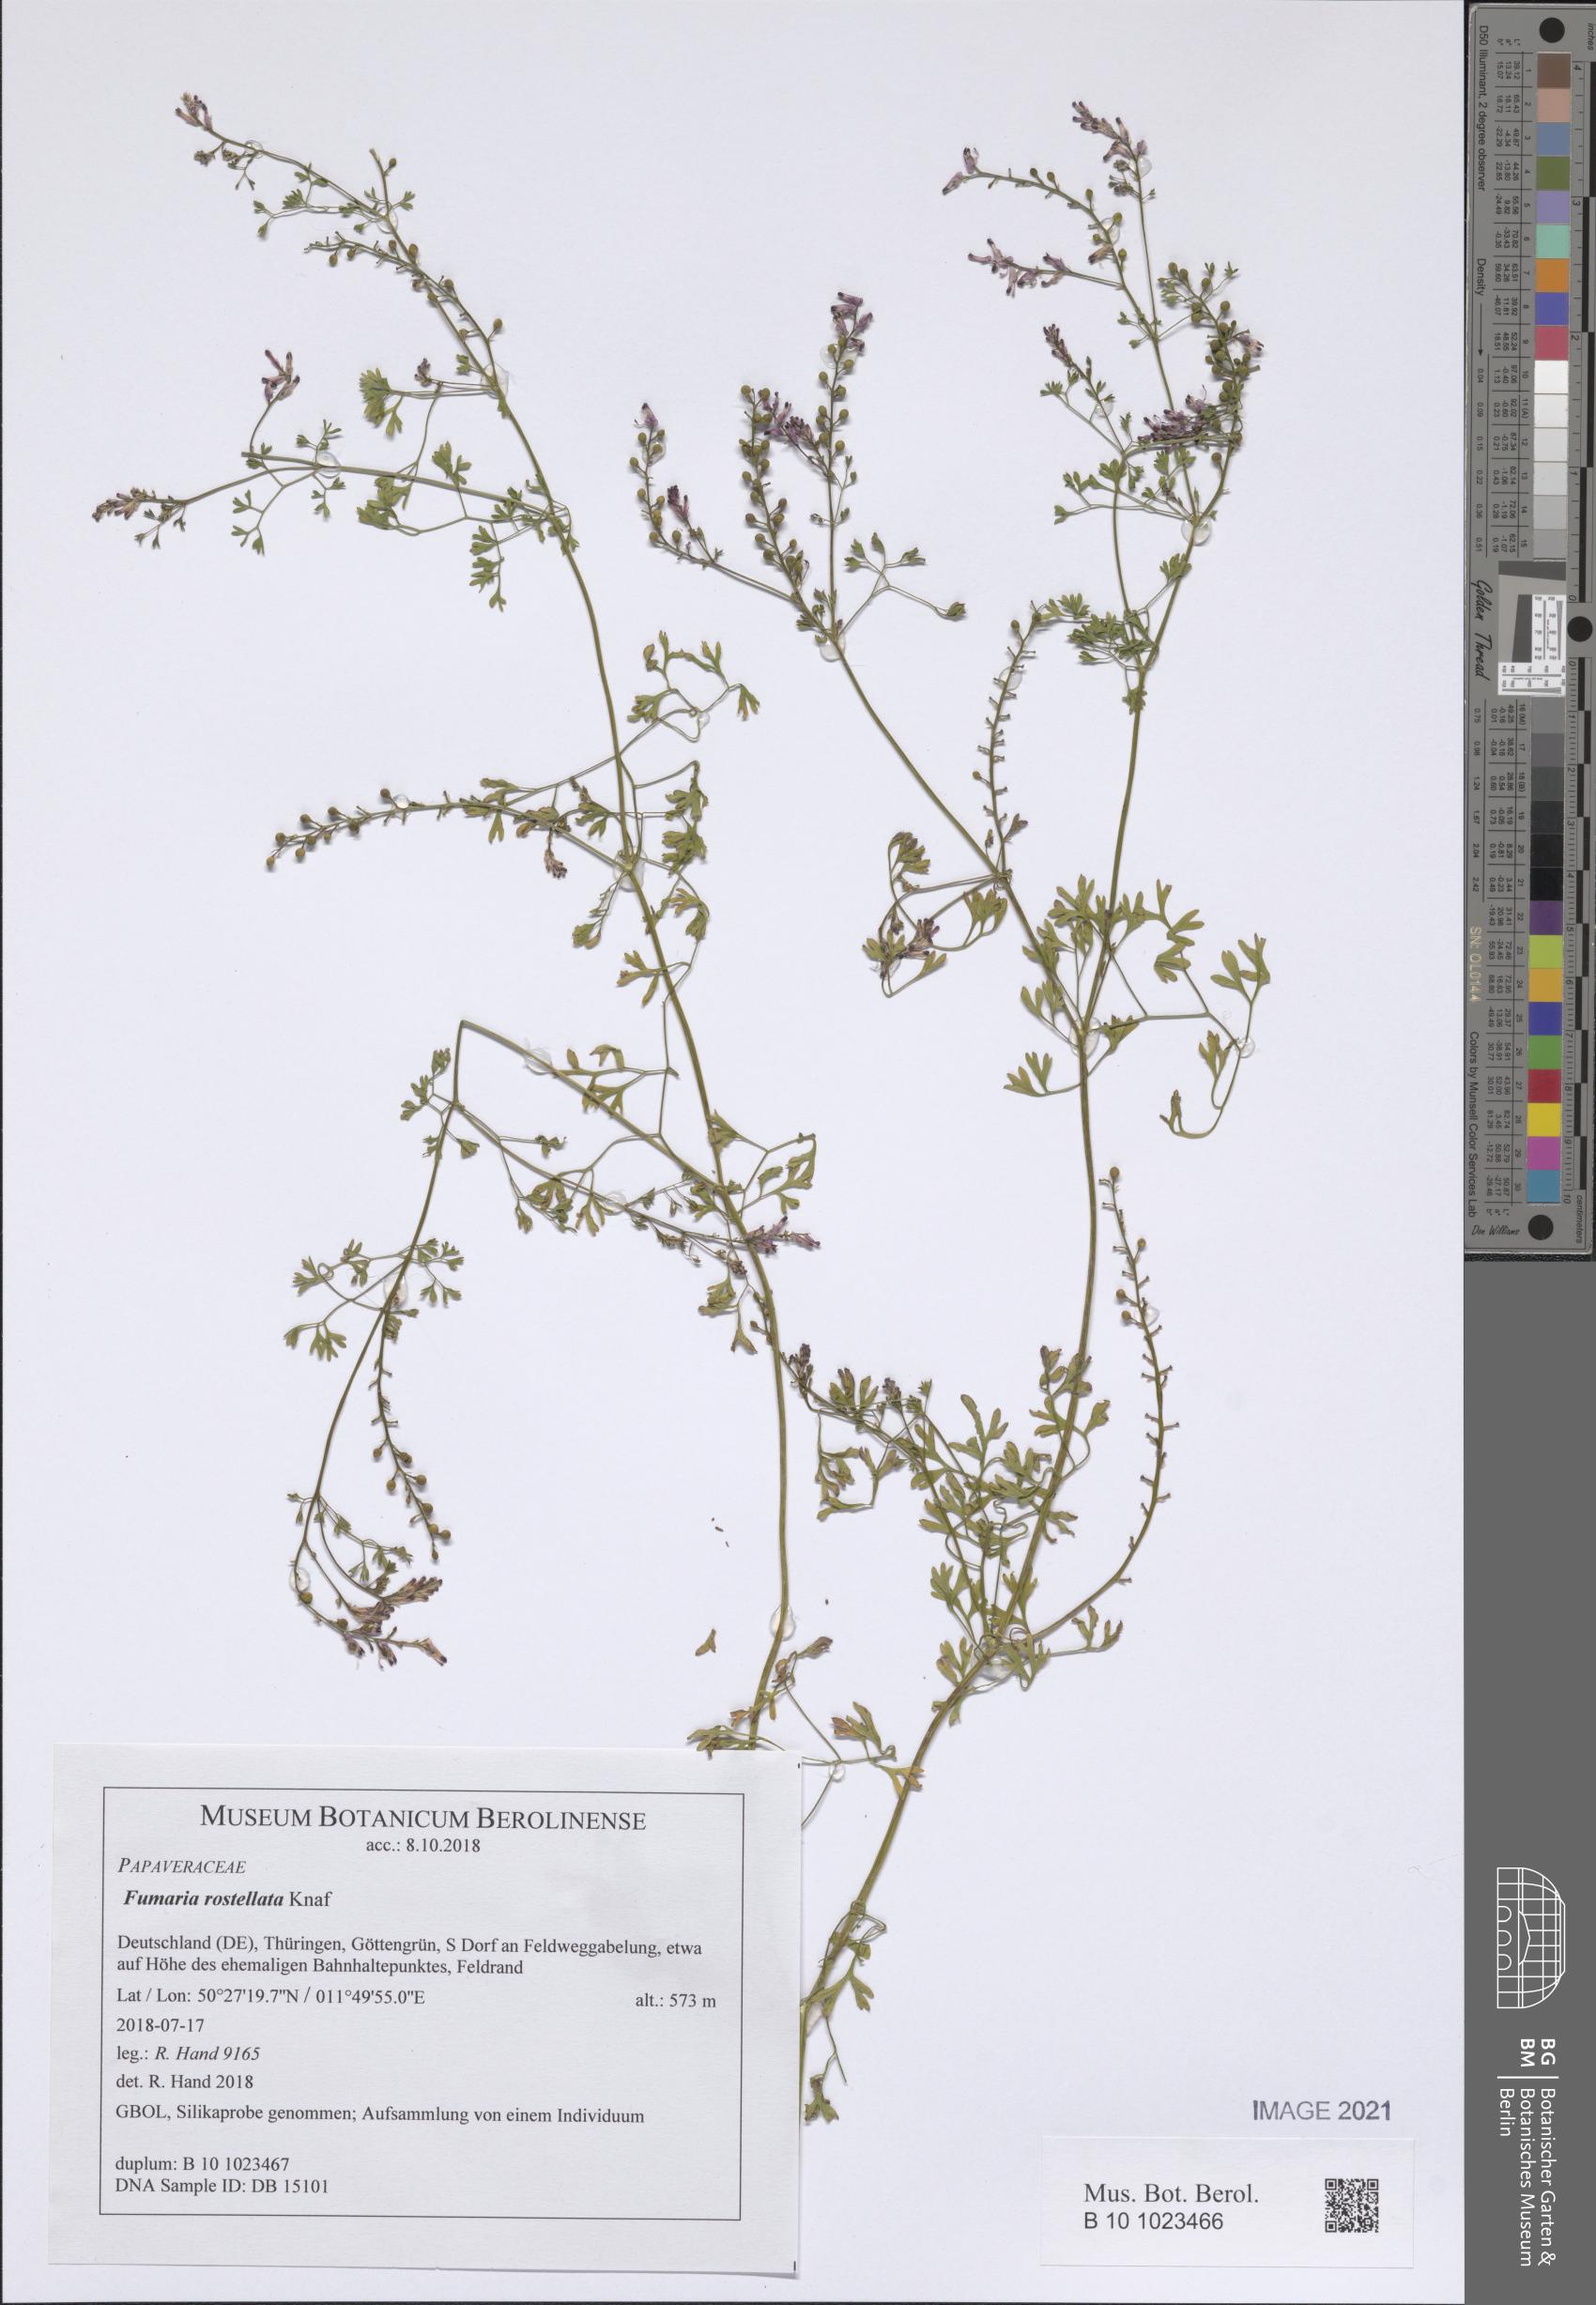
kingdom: Plantae
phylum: Tracheophyta
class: Magnoliopsida
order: Ranunculales
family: Papaveraceae
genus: Fumaria
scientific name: Fumaria rostellata
